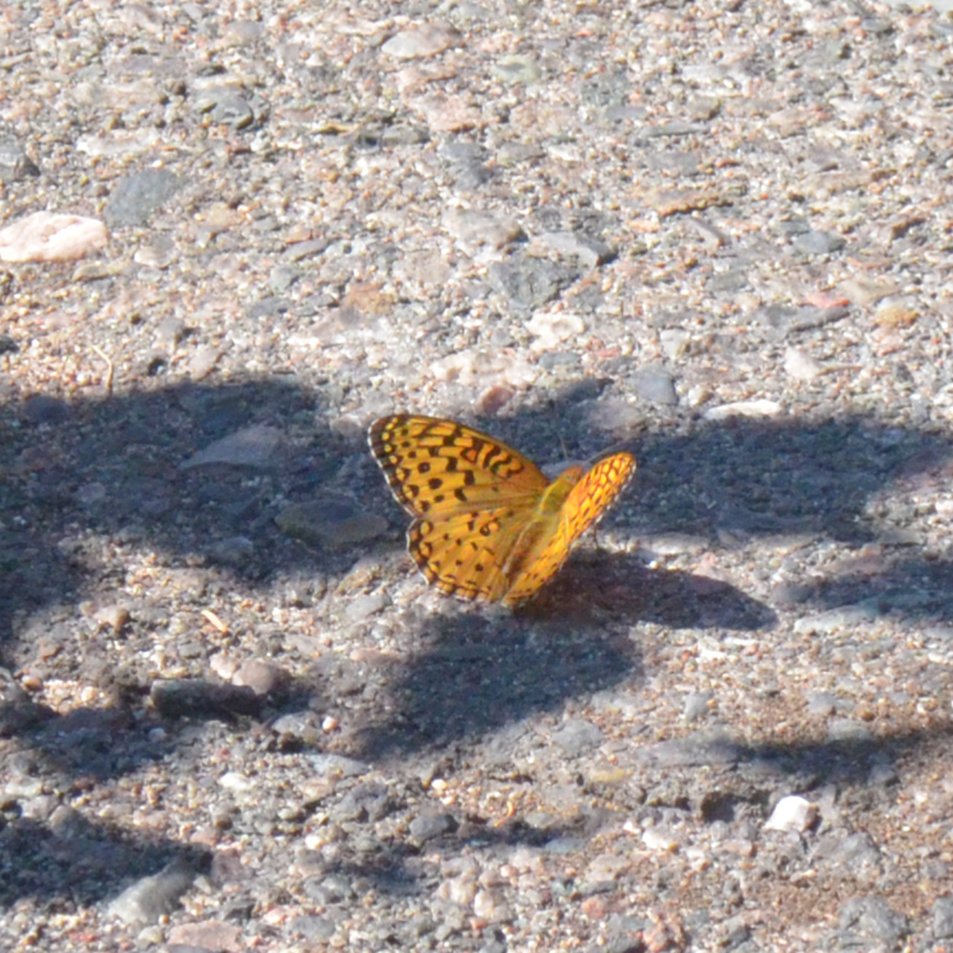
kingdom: Animalia
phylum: Arthropoda
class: Insecta
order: Lepidoptera
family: Nymphalidae
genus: Speyeria
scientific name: Speyeria aphrodite
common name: Aphrodite Fritillary
